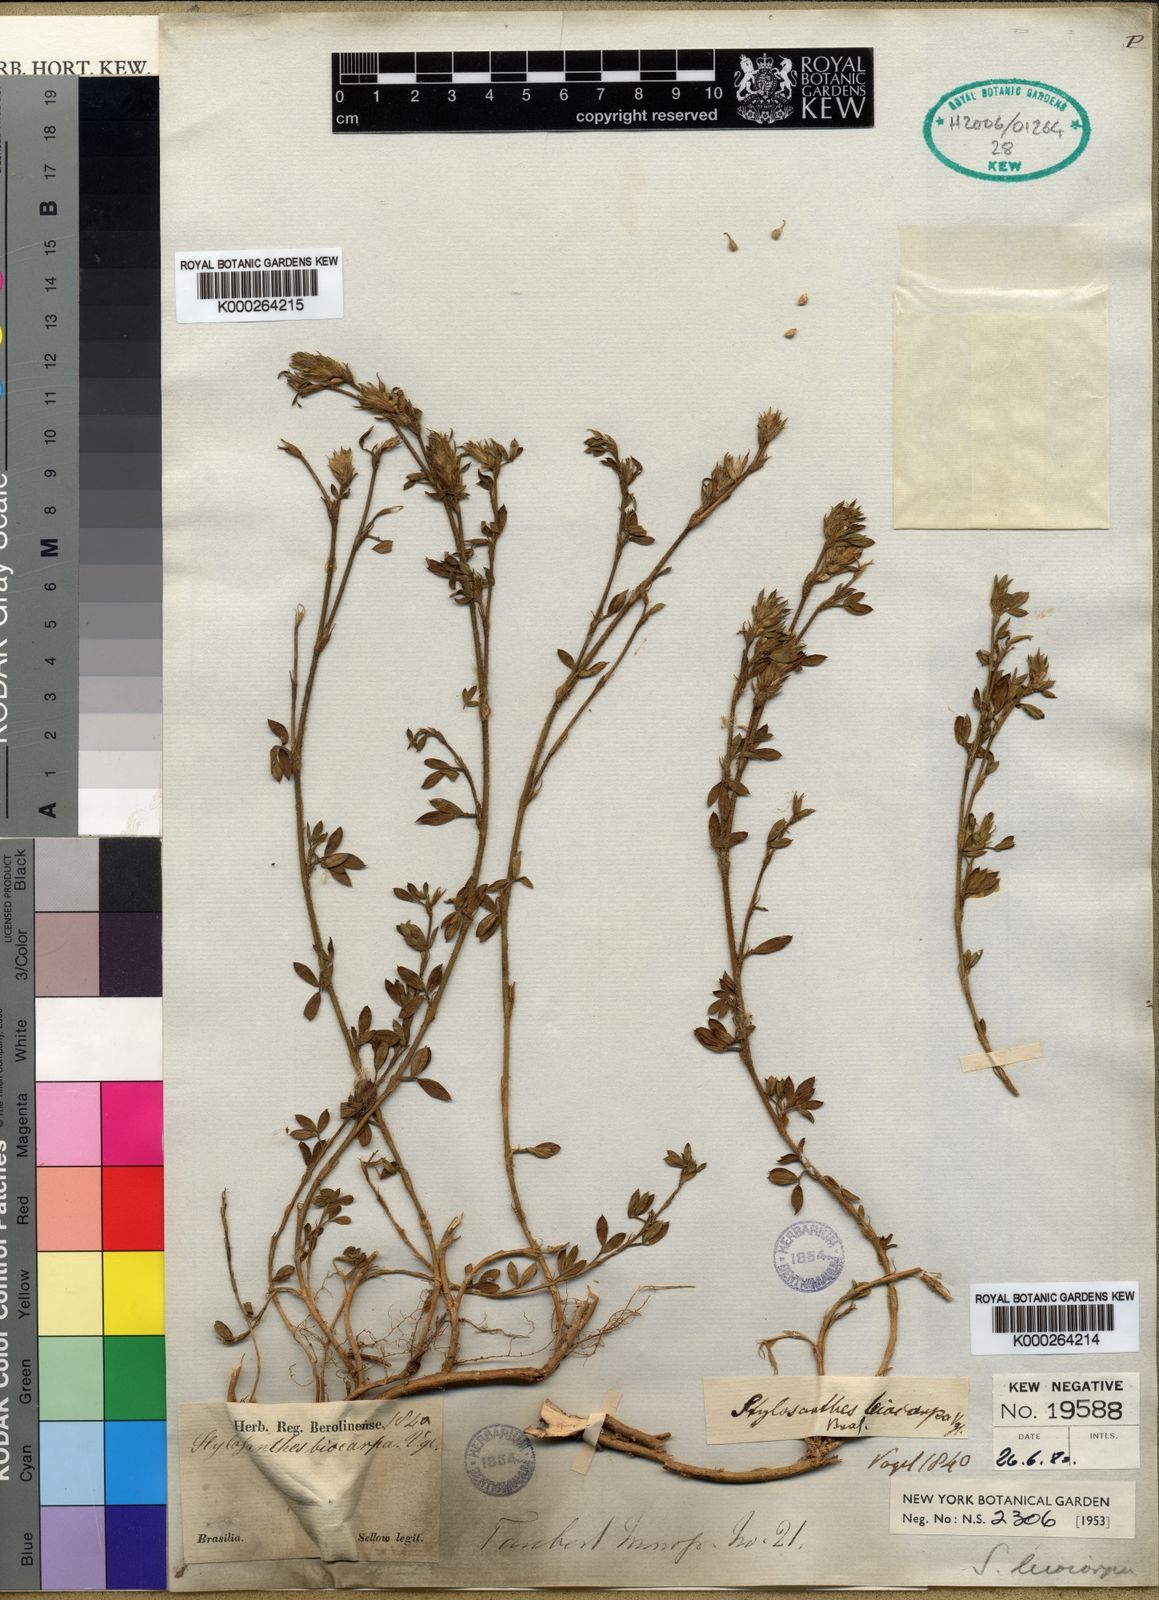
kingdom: Plantae
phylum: Tracheophyta
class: Magnoliopsida
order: Fabales
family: Fabaceae
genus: Stylosanthes
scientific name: Stylosanthes leiocarpa
